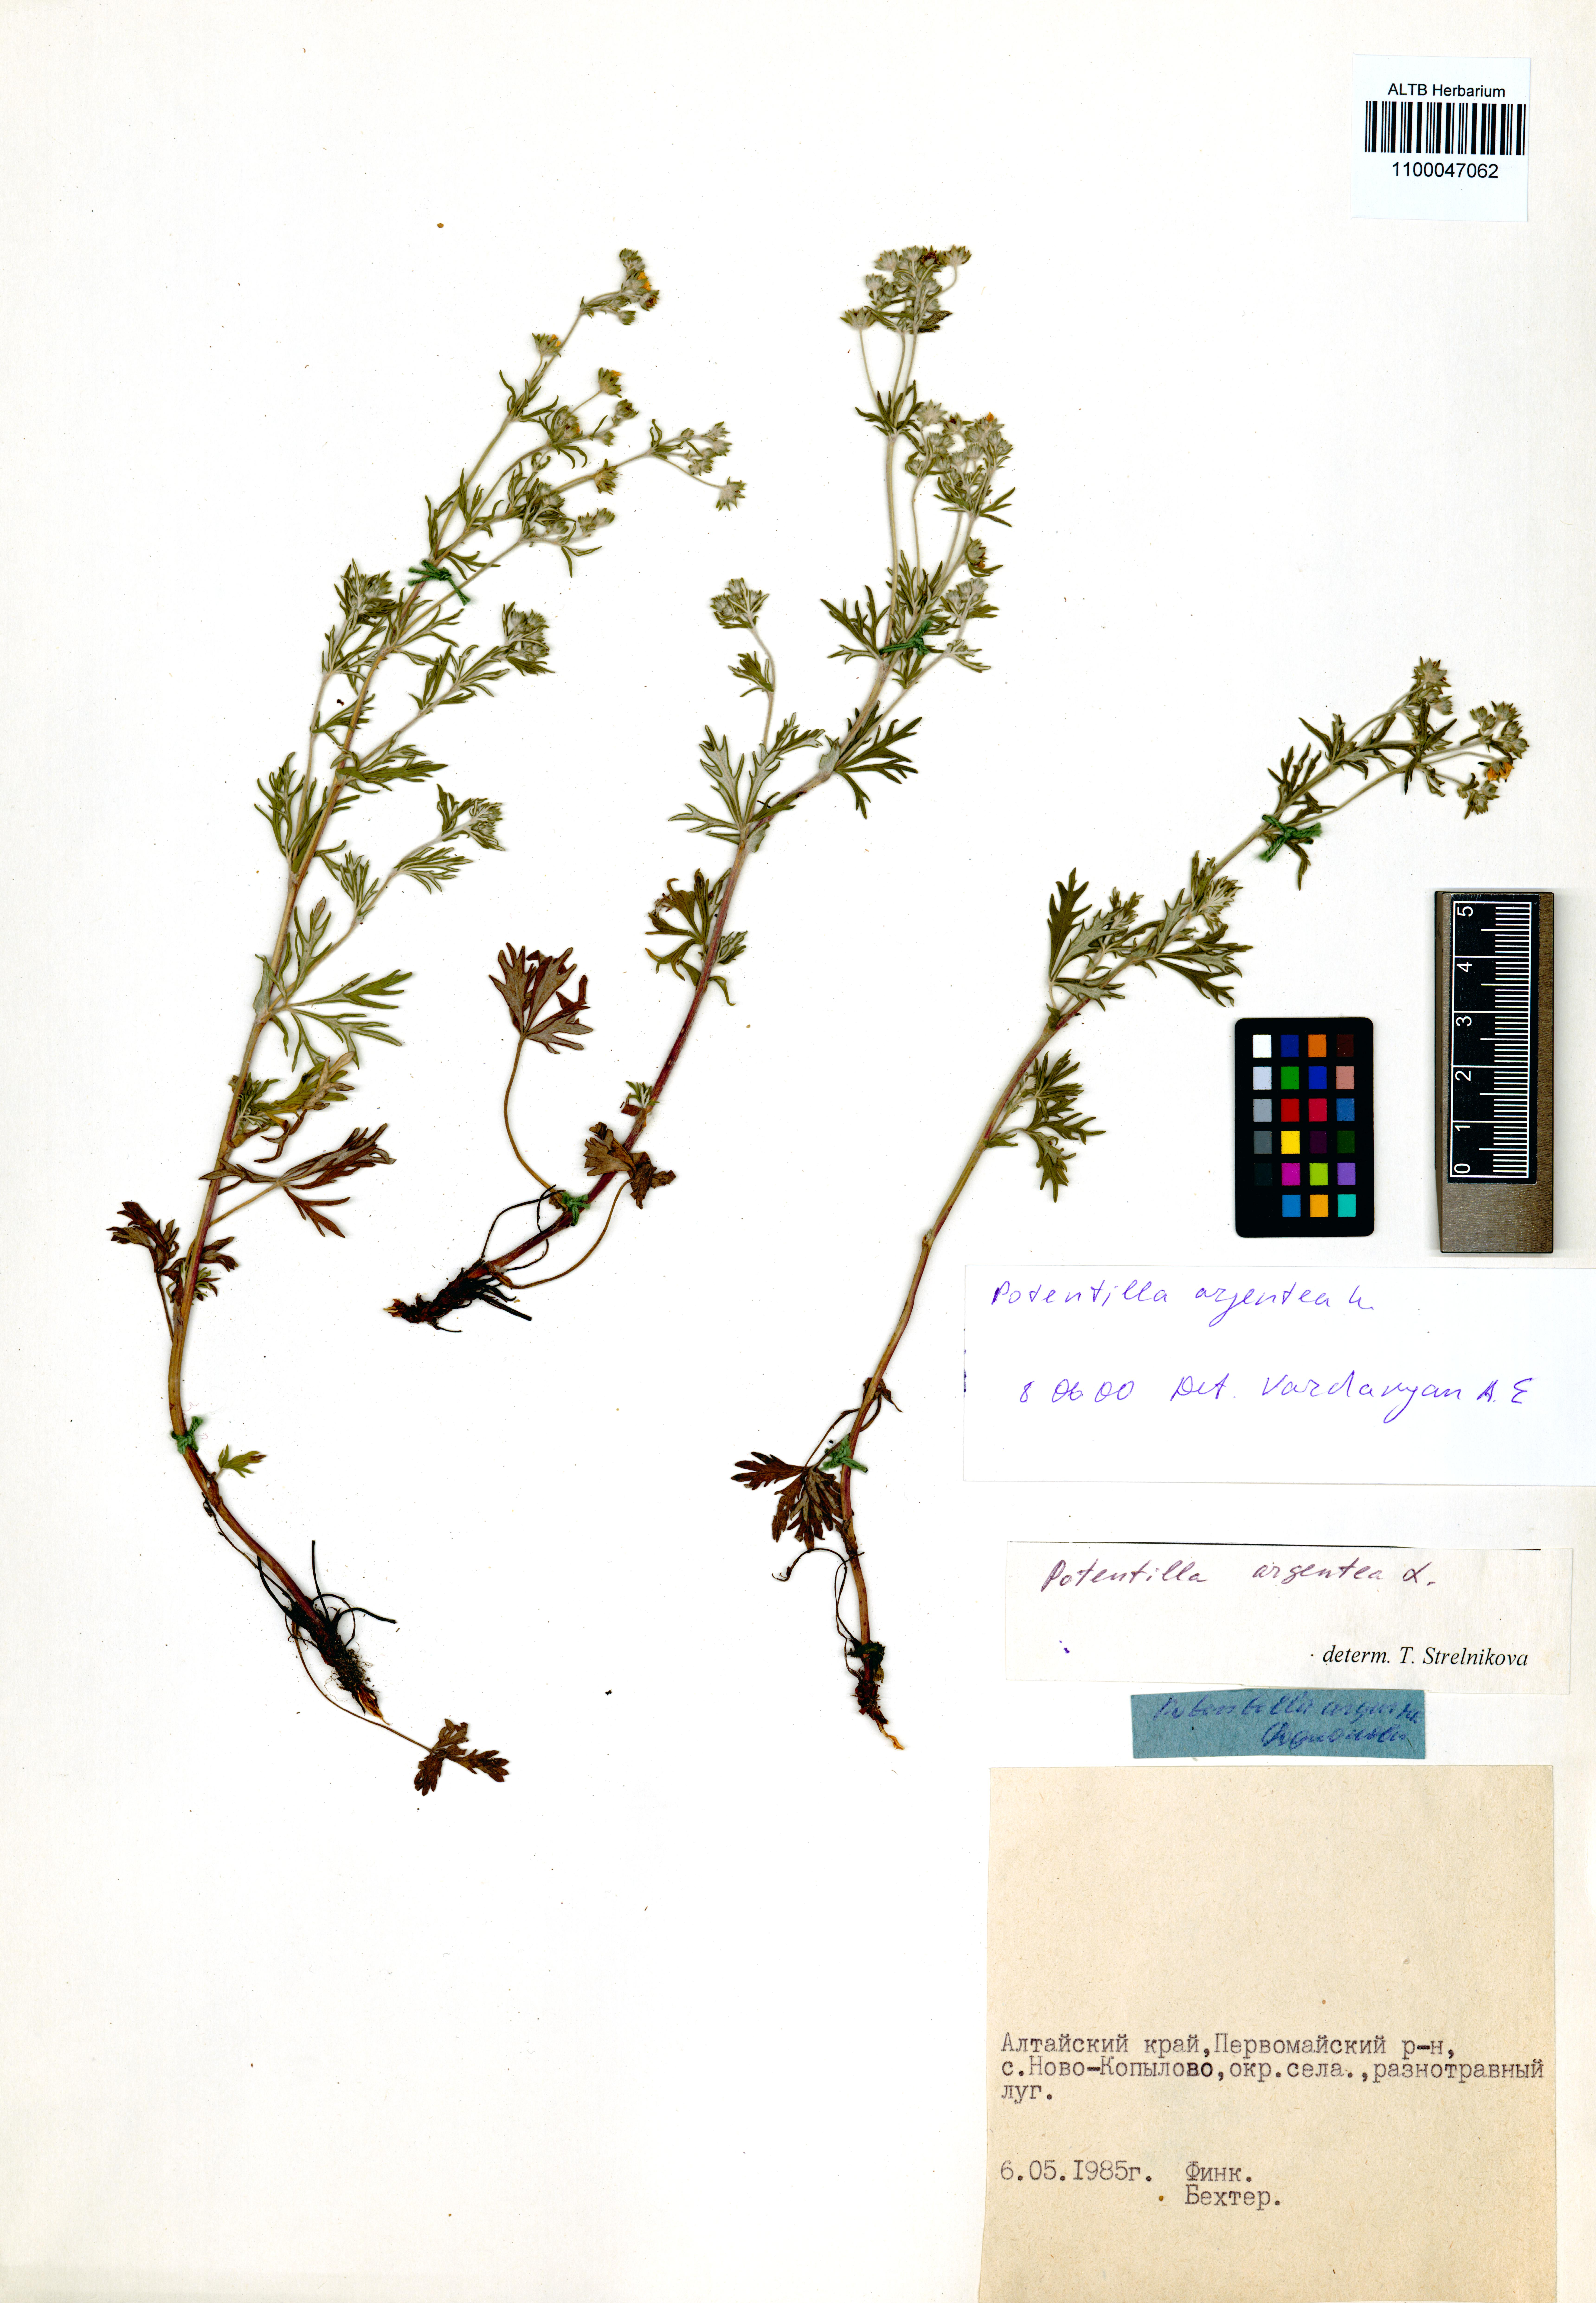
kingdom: Plantae
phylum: Tracheophyta
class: Magnoliopsida
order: Rosales
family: Rosaceae
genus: Potentilla
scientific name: Potentilla argentea
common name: Hoary cinquefoil
